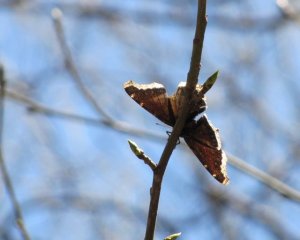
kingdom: Animalia
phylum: Arthropoda
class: Insecta
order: Lepidoptera
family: Nymphalidae
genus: Nymphalis
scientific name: Nymphalis antiopa
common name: Mourning Cloak
